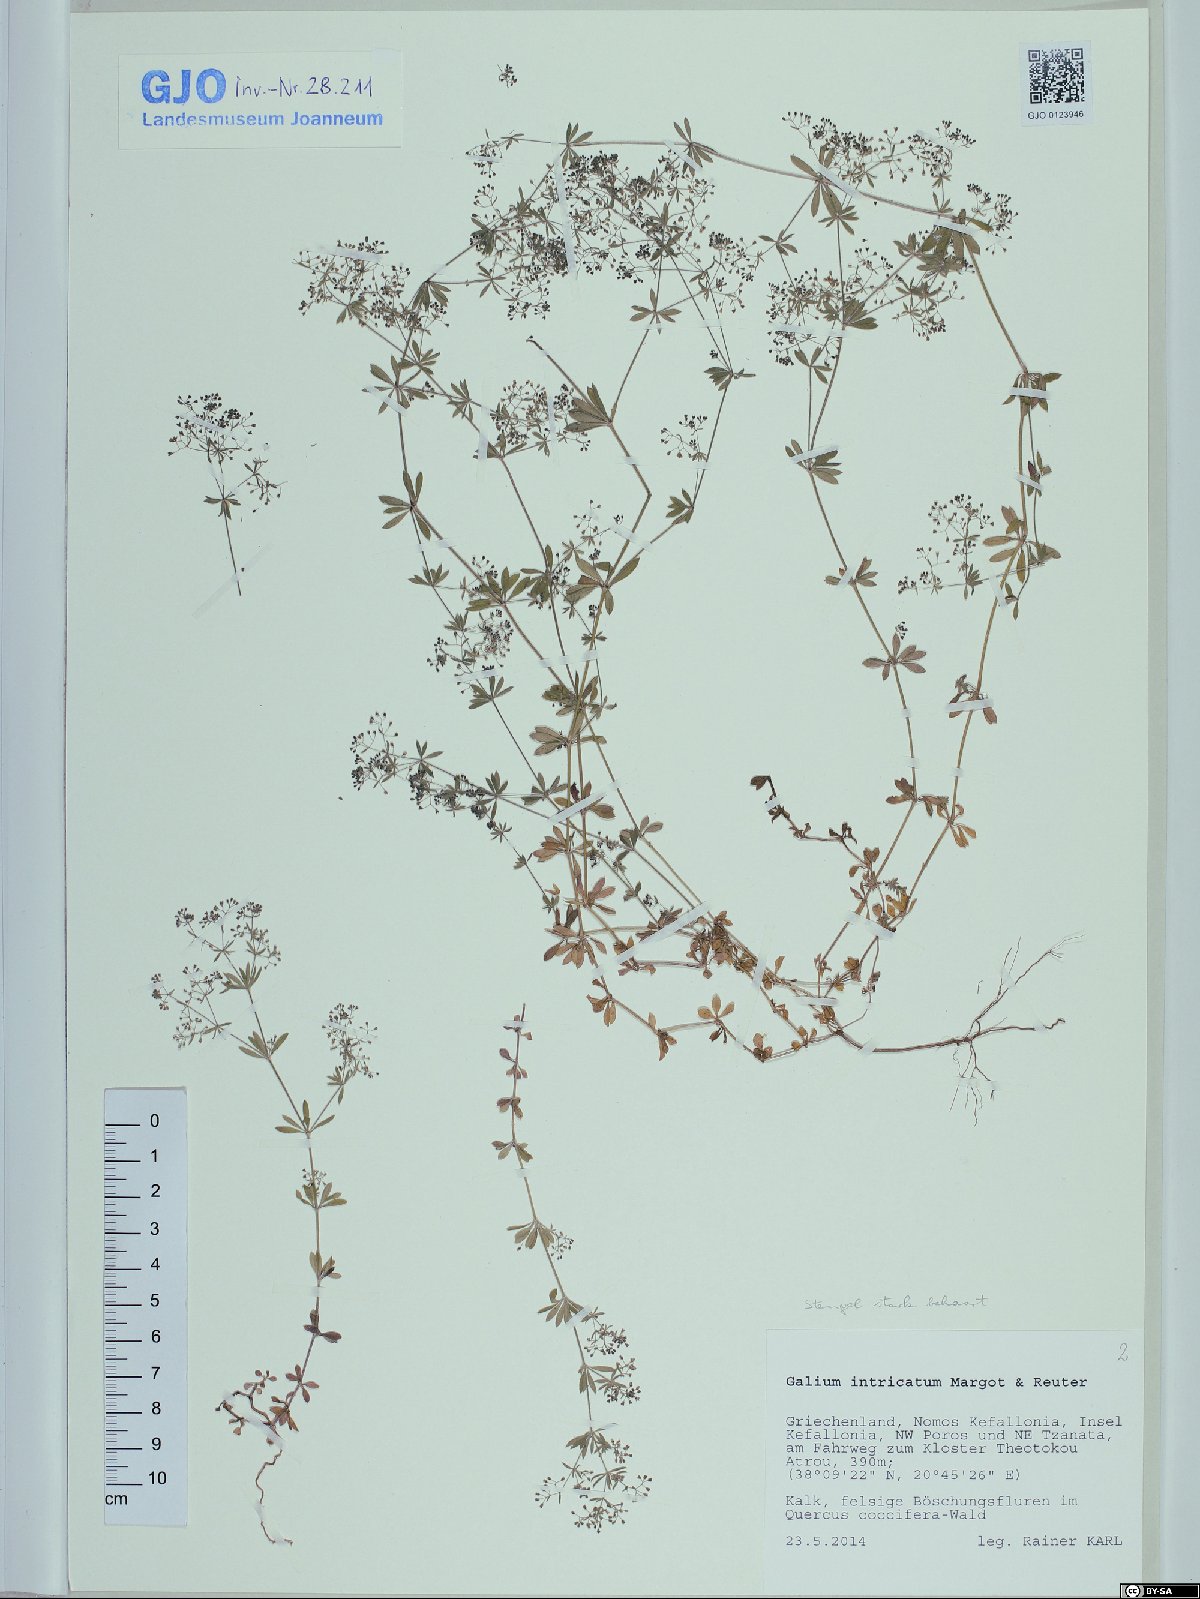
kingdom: Plantae
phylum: Tracheophyta
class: Magnoliopsida
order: Gentianales
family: Rubiaceae
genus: Galium
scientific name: Galium intricatum
